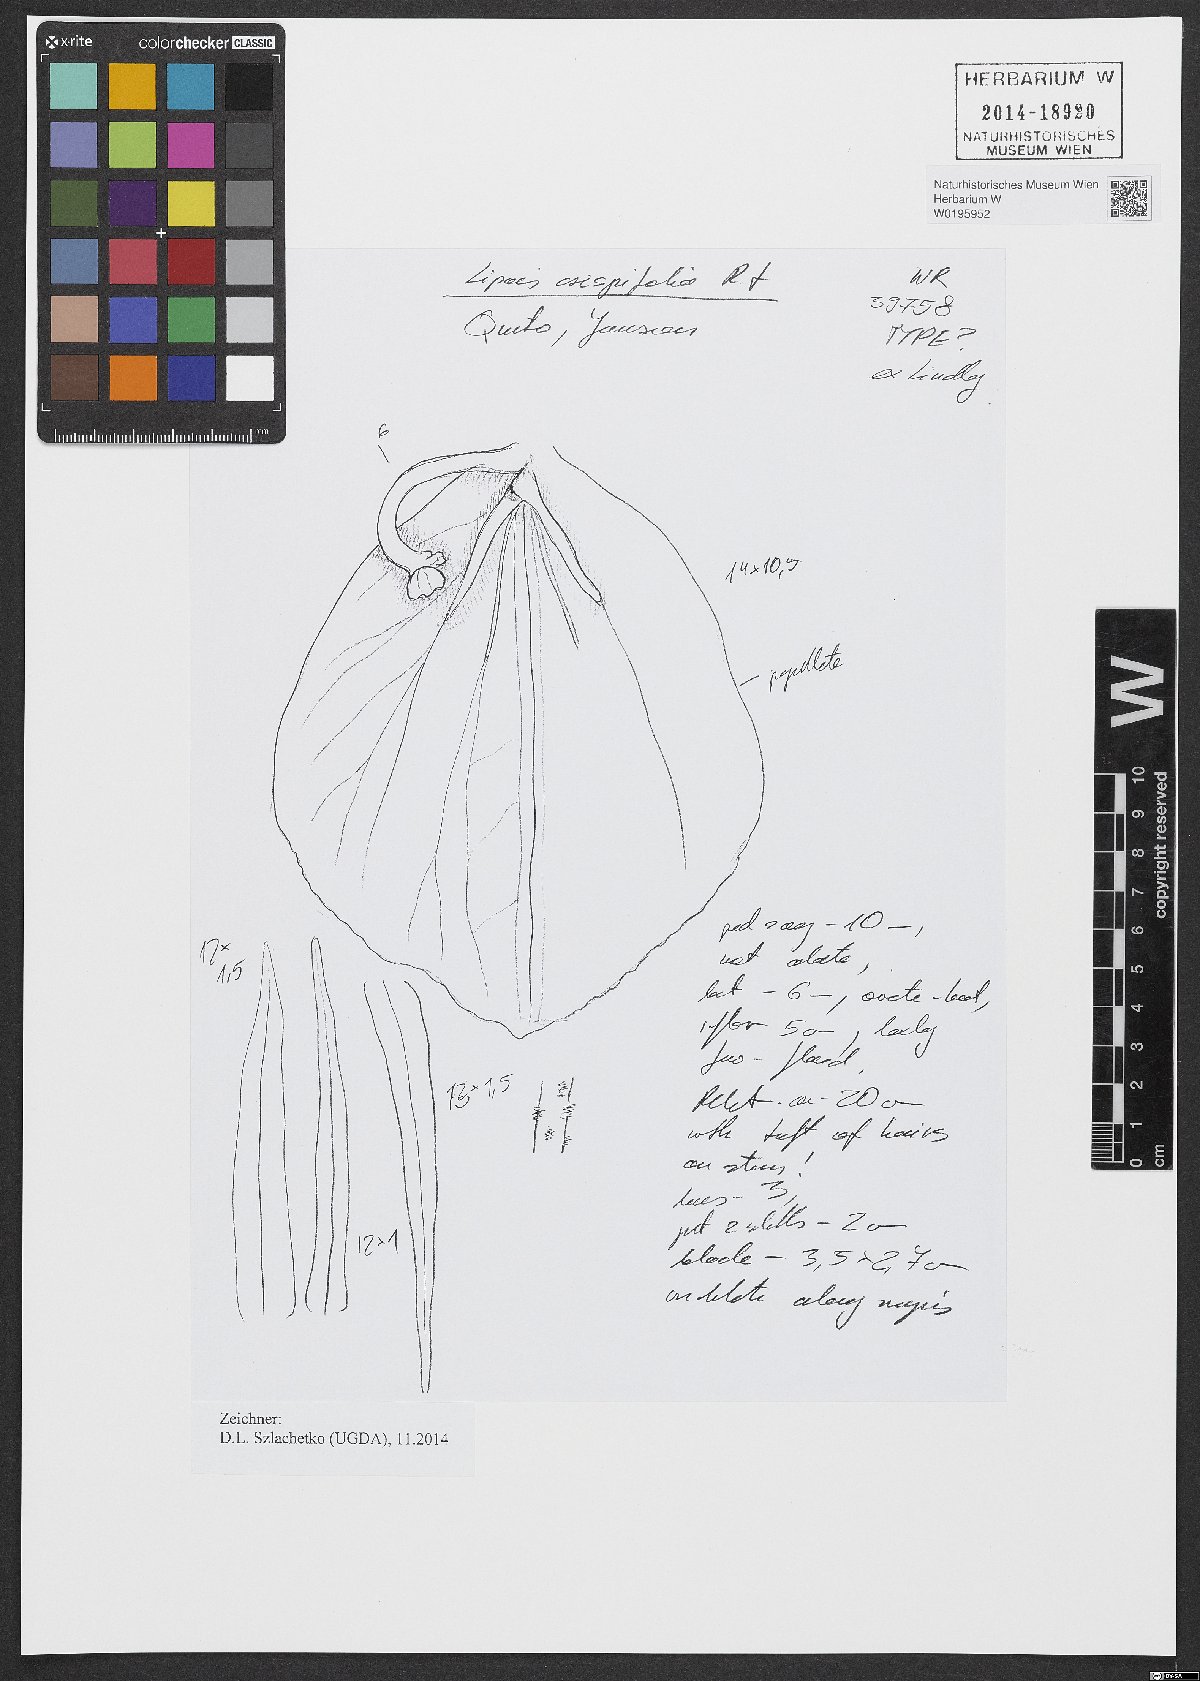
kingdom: Plantae
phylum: Tracheophyta
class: Liliopsida
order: Asparagales
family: Orchidaceae
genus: Liparis
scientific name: Liparis crispifolia
